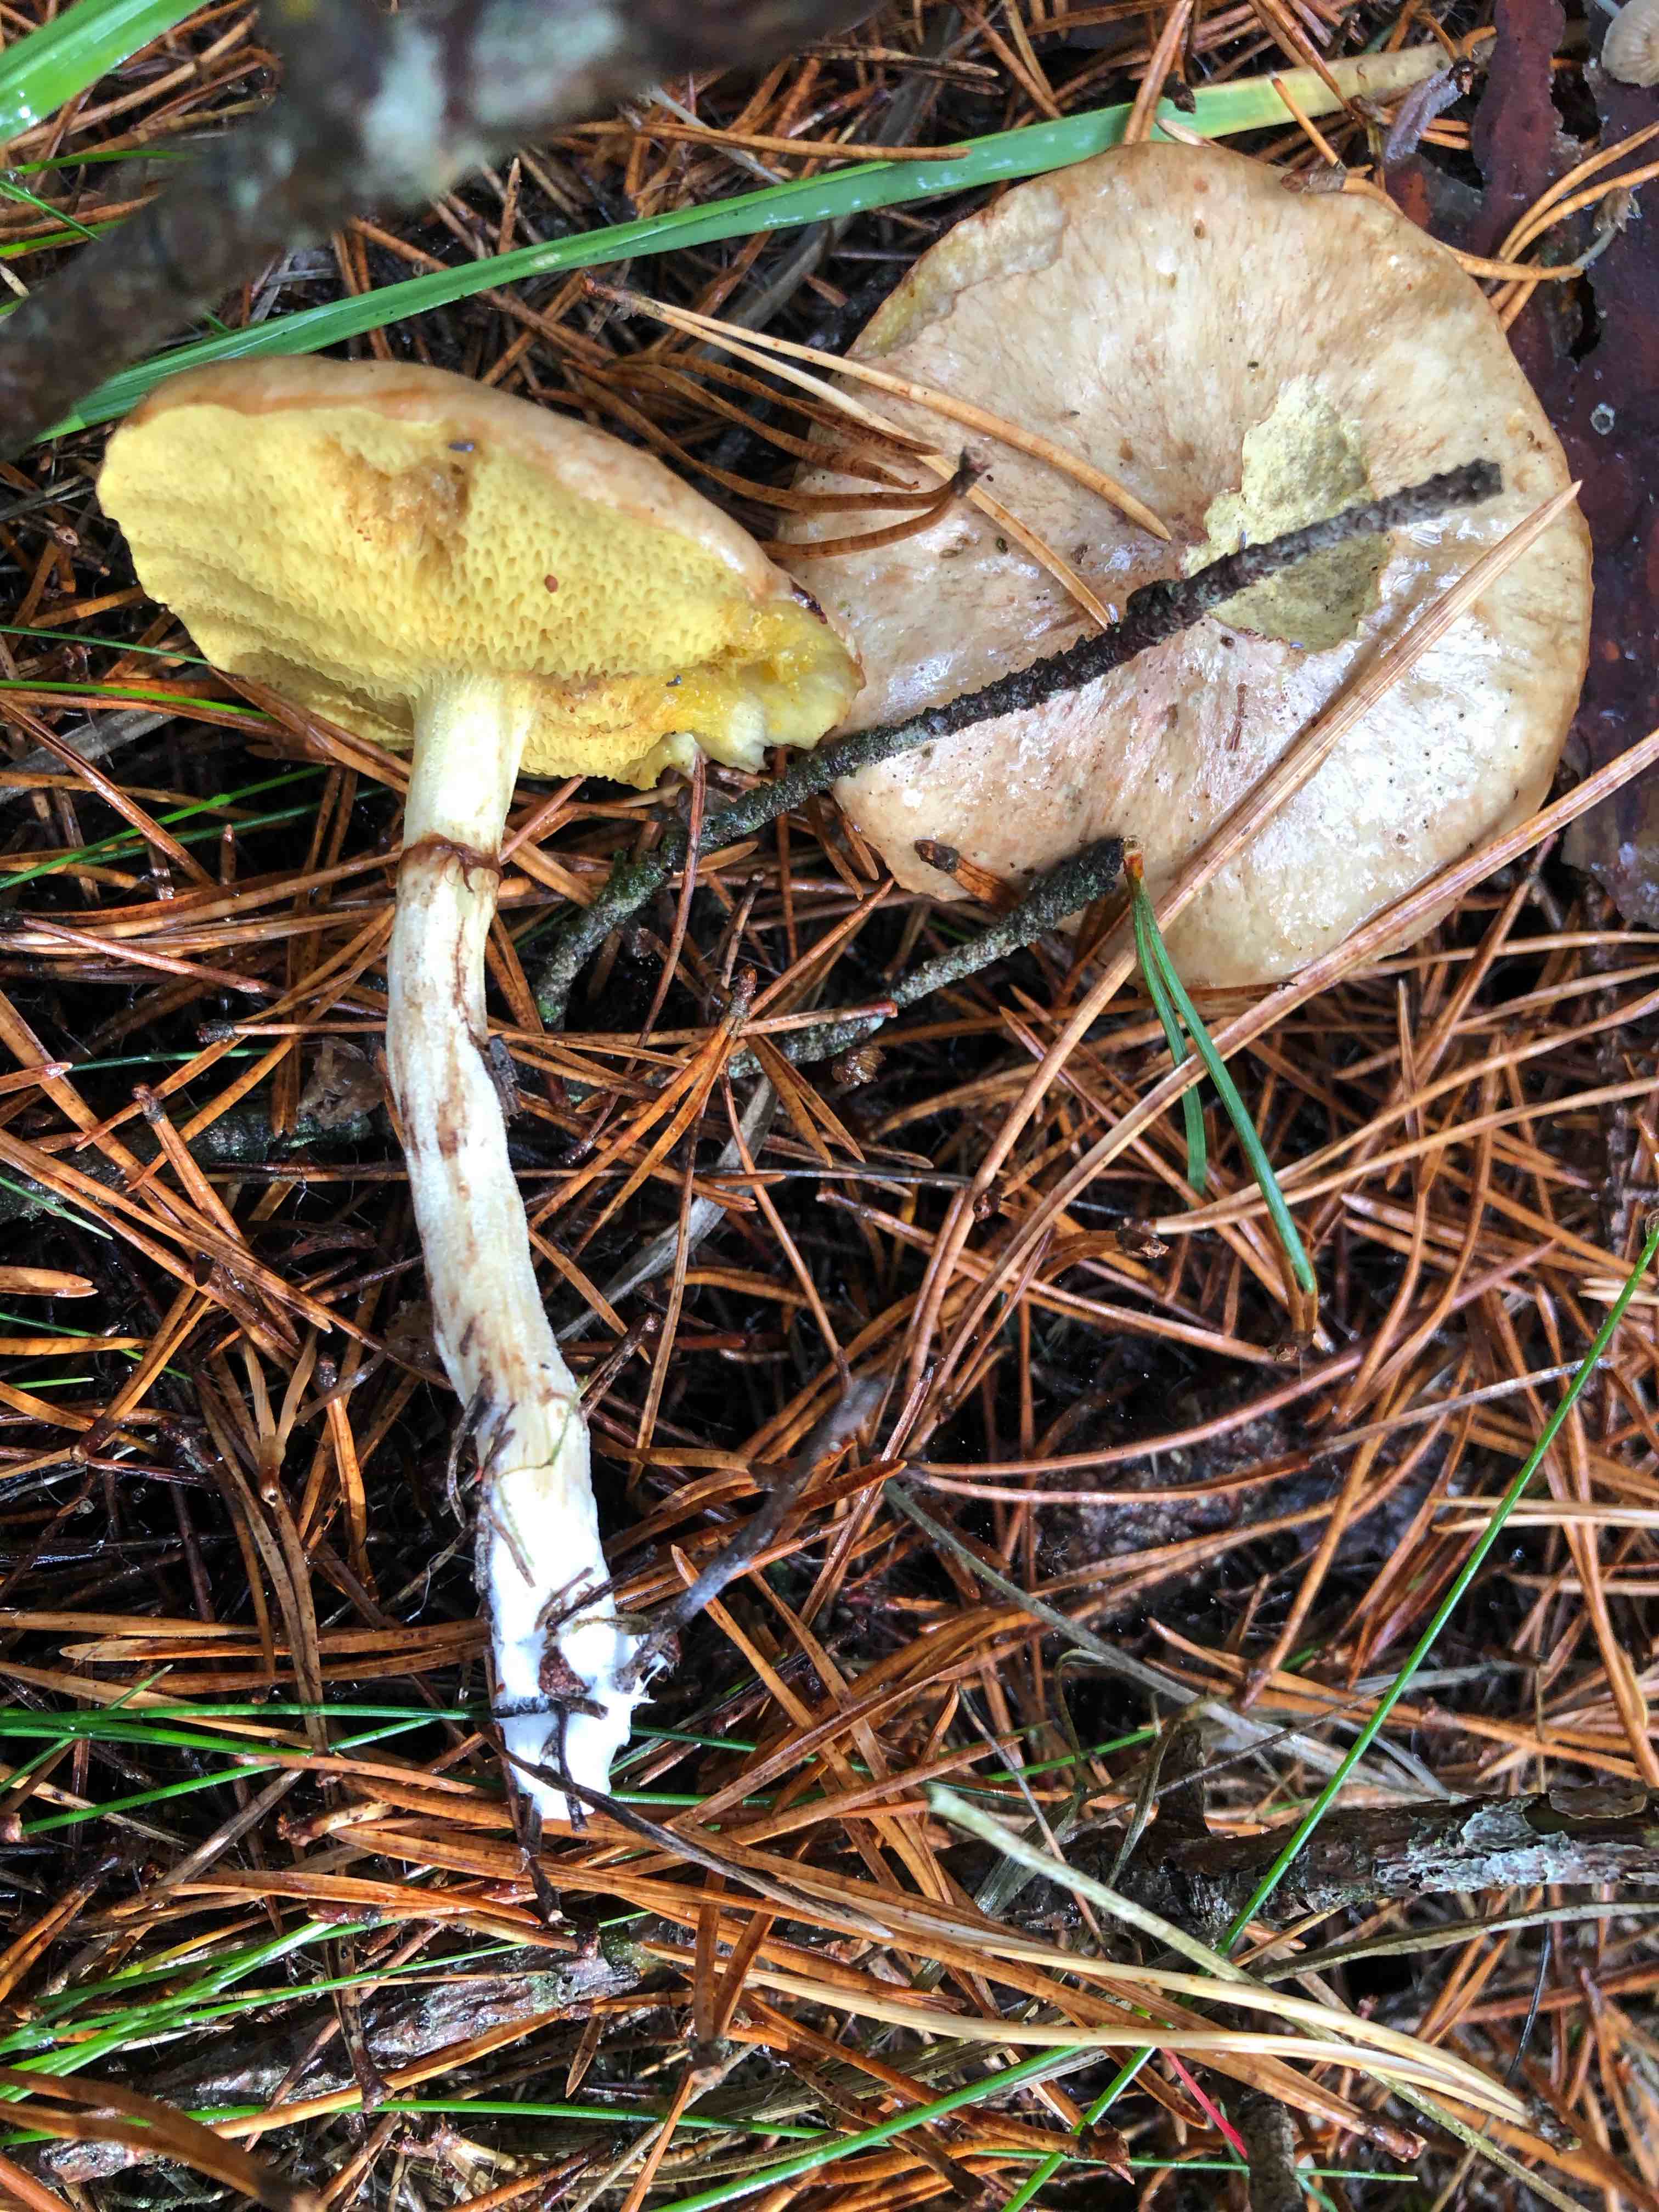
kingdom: Fungi
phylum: Basidiomycota
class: Agaricomycetes
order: Boletales
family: Suillaceae
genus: Suillus
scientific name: Suillus flavidus
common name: mose-slimrørhat
